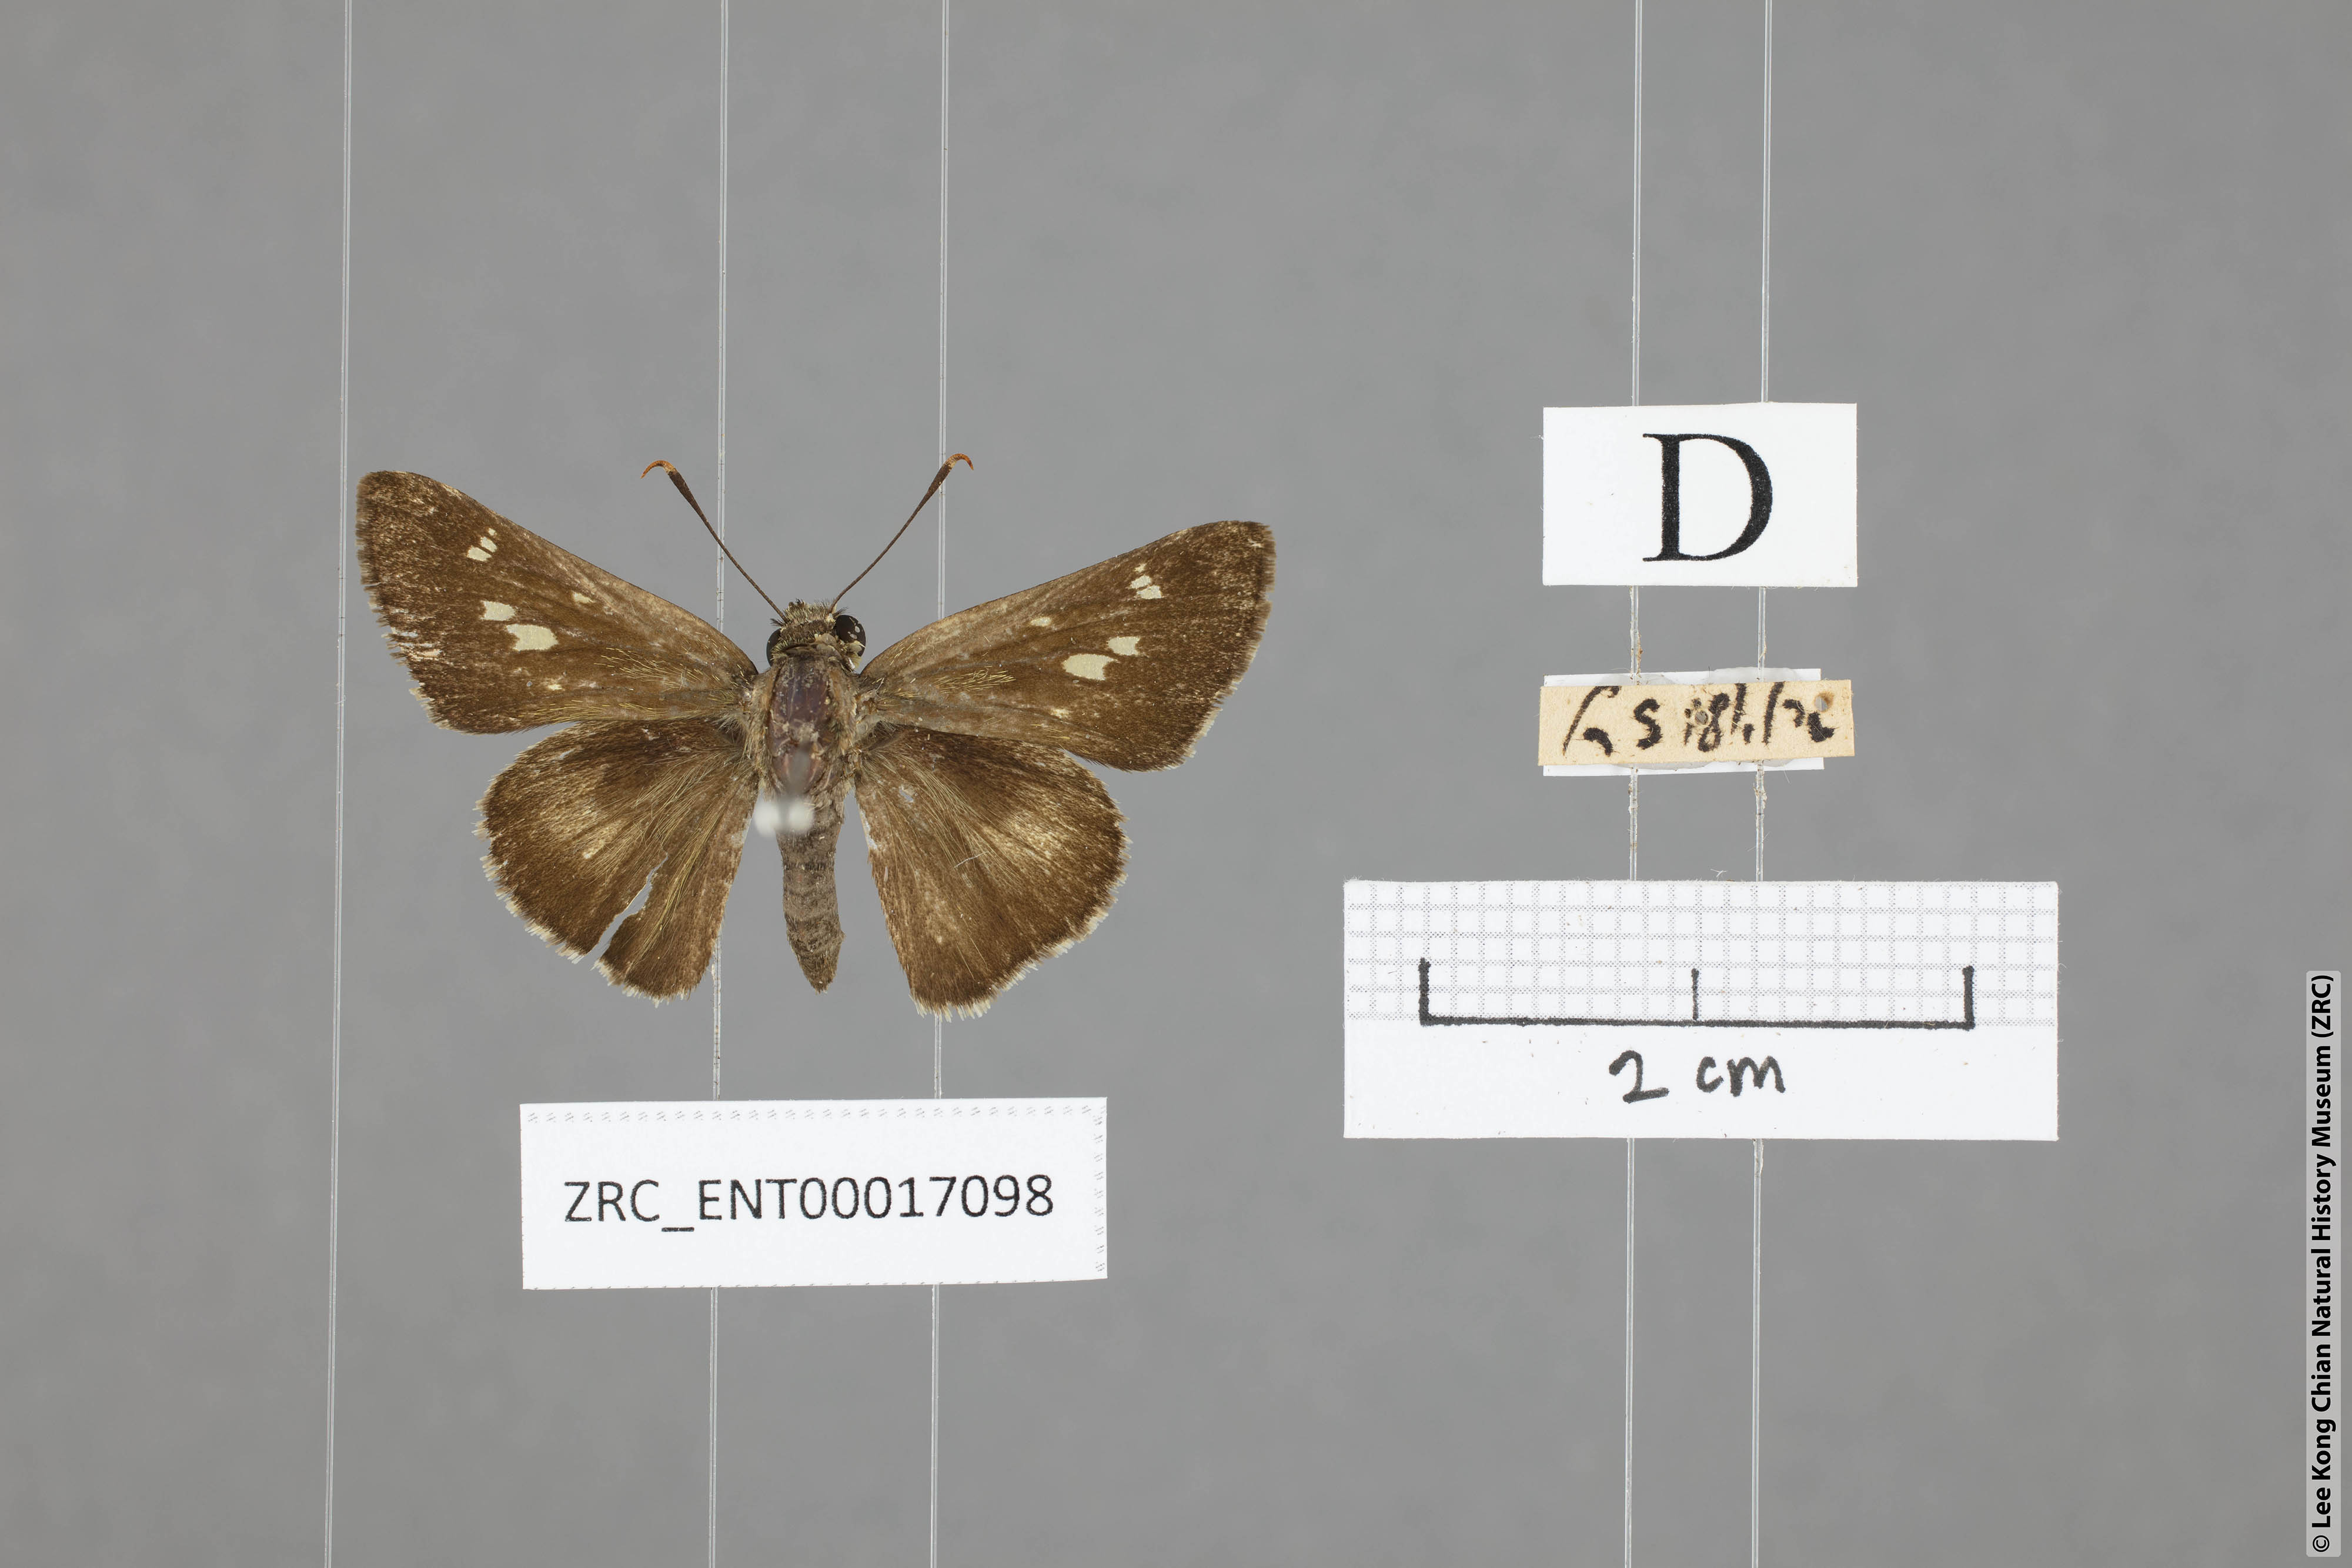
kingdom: Animalia
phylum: Arthropoda
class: Insecta
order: Lepidoptera
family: Hesperiidae
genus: Halpe
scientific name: Halpe zema
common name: Dark banded ace
